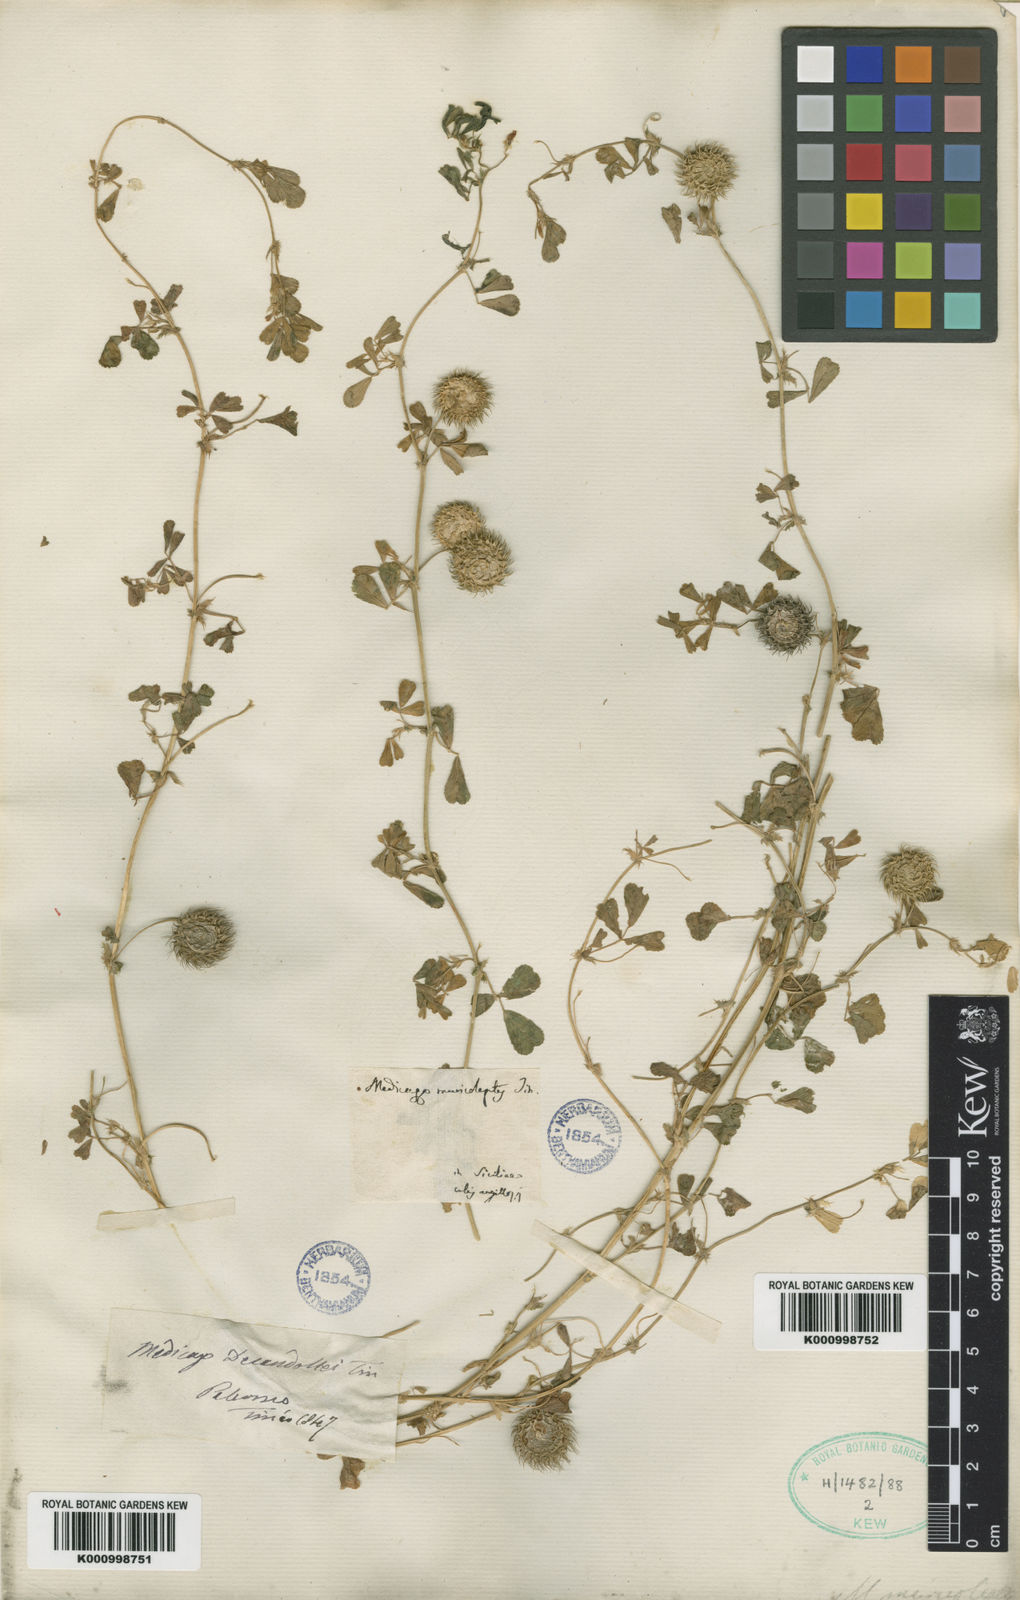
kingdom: Plantae
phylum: Tracheophyta
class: Magnoliopsida
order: Fabales
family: Fabaceae
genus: Medicago
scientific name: Medicago intertexta
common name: Hedgehog medick
